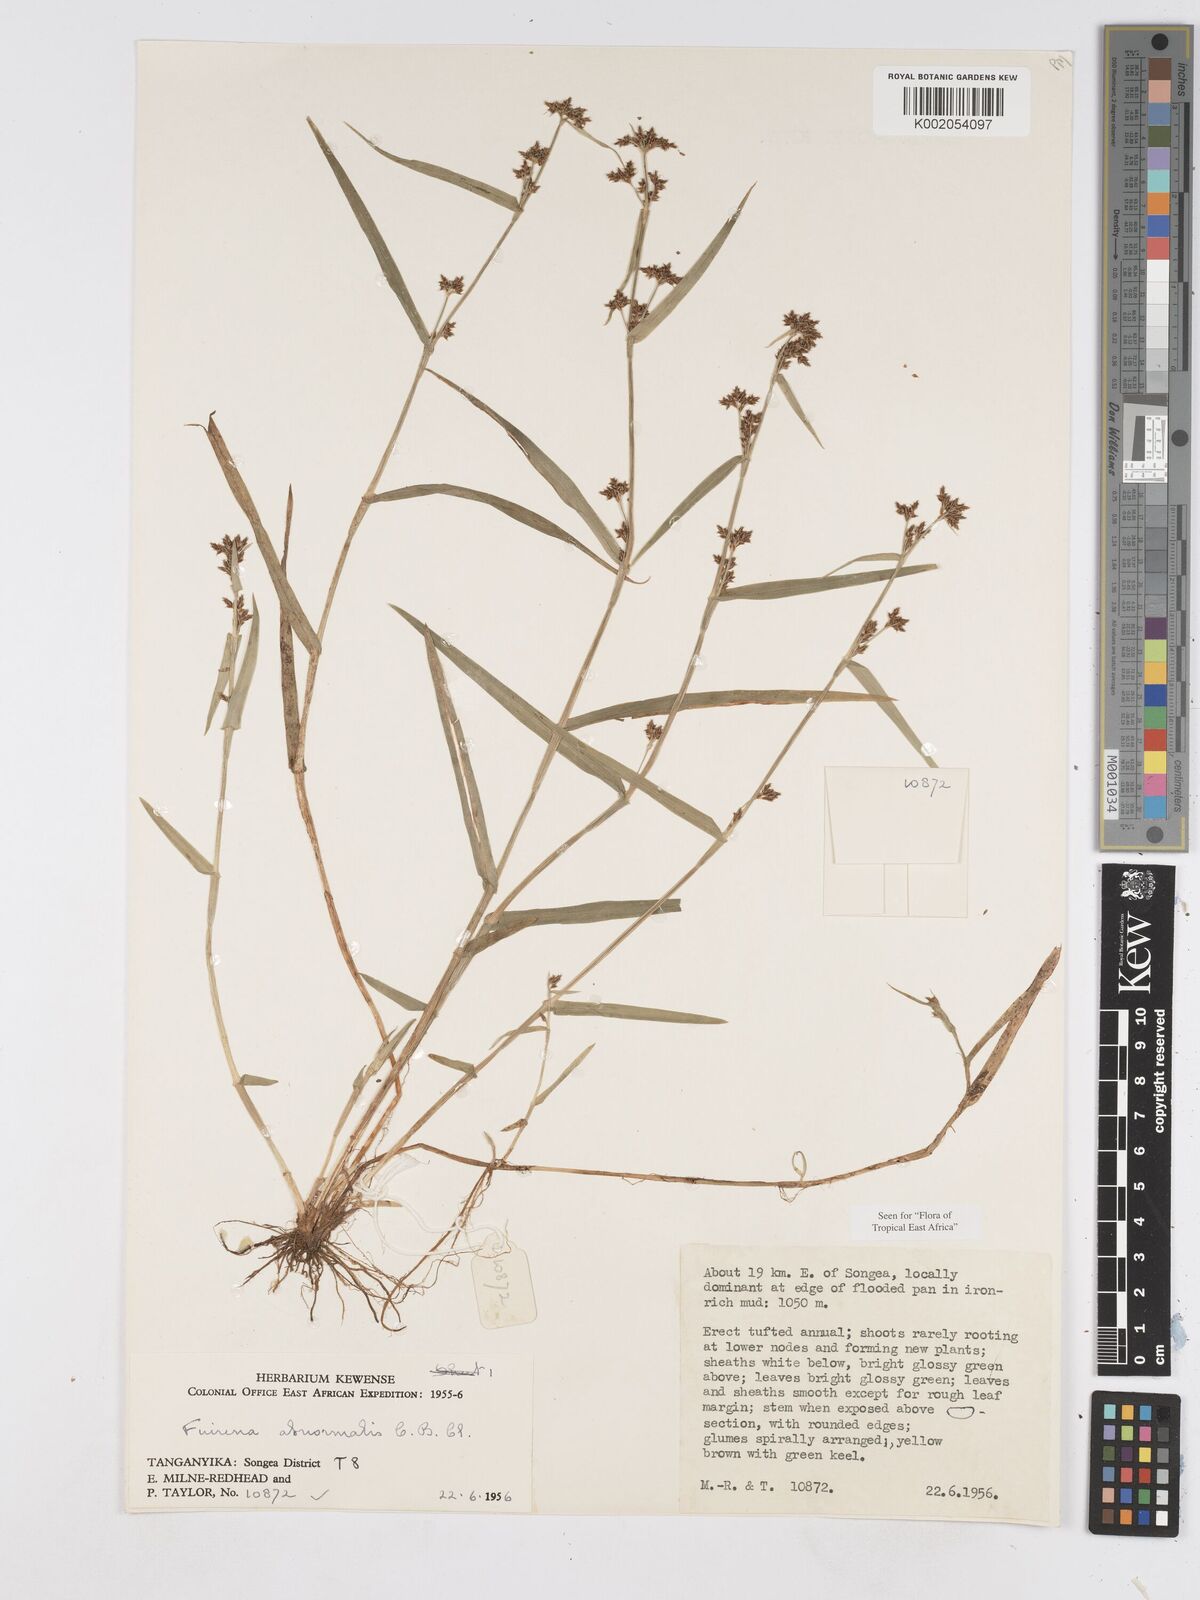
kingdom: Plantae
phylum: Tracheophyta
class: Liliopsida
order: Poales
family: Cyperaceae
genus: Fuirena
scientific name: Fuirena abnormalis
